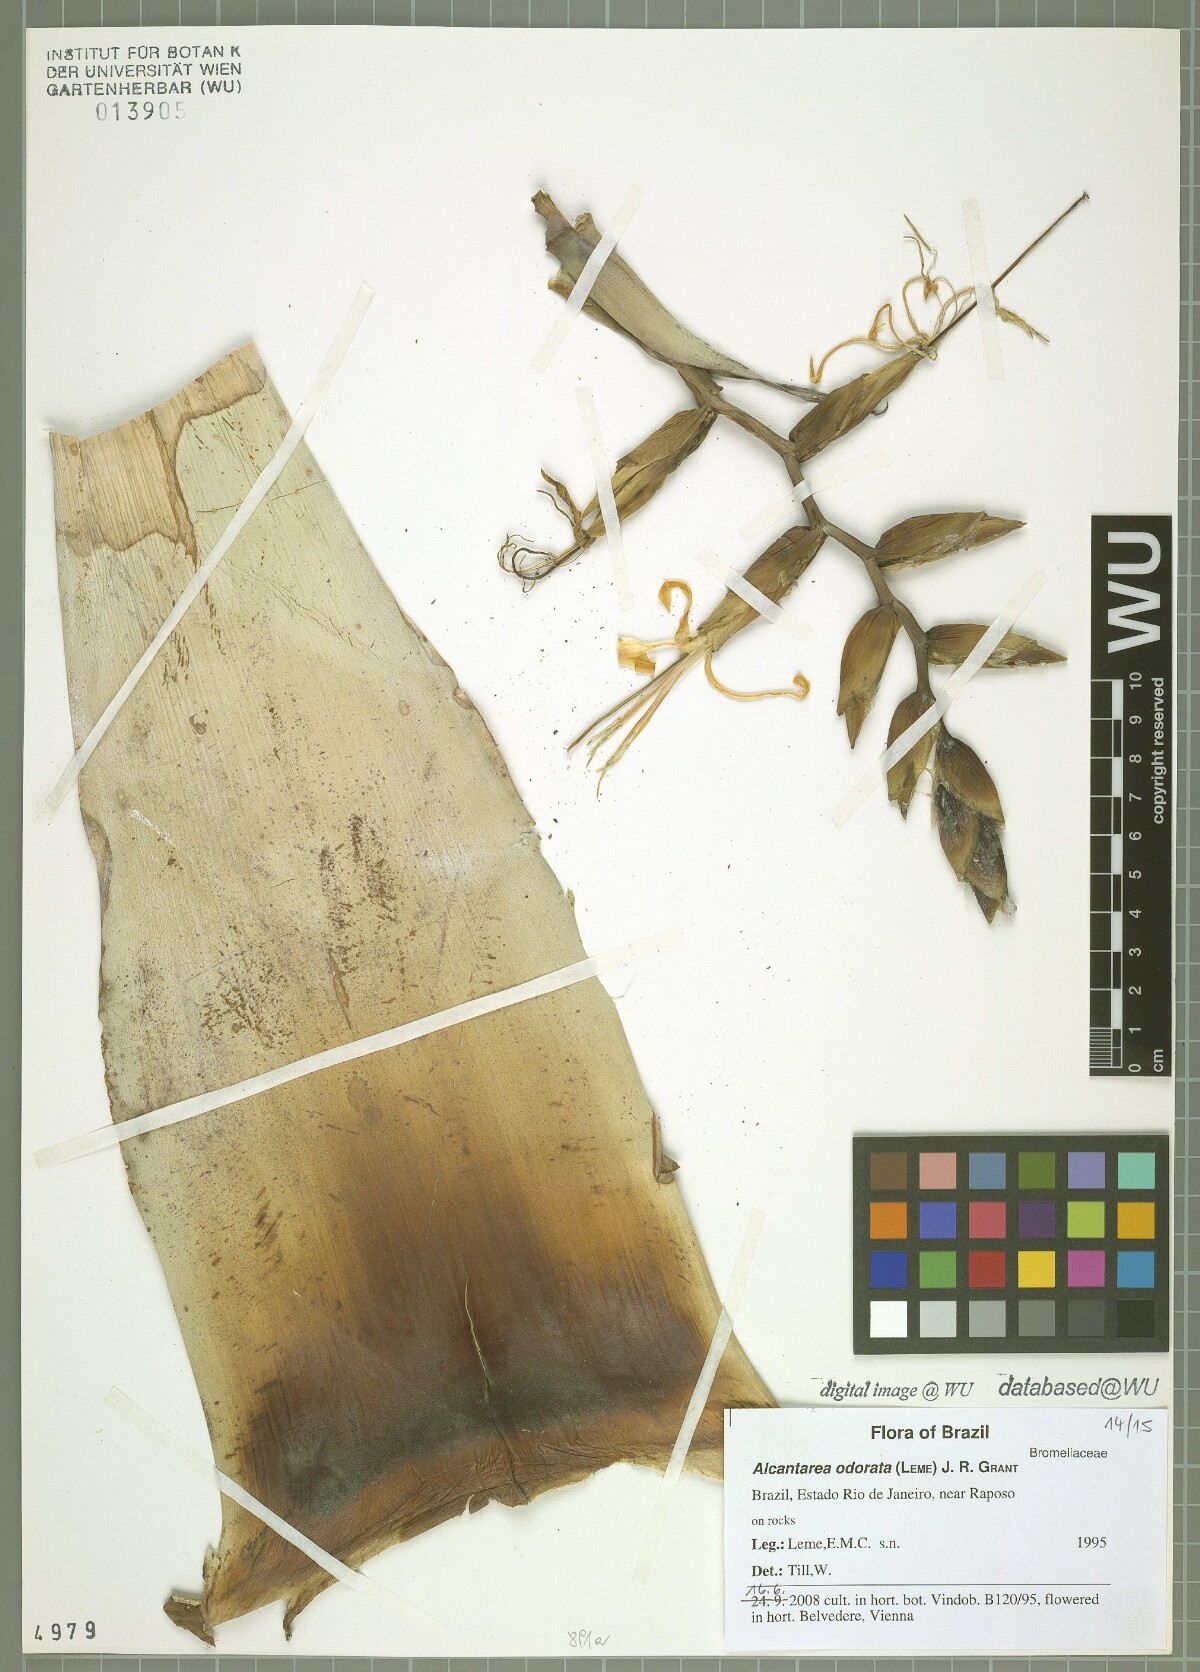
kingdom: Plantae
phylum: Tracheophyta
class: Liliopsida
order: Poales
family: Bromeliaceae
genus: Alcantarea
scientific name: Alcantarea odorata
